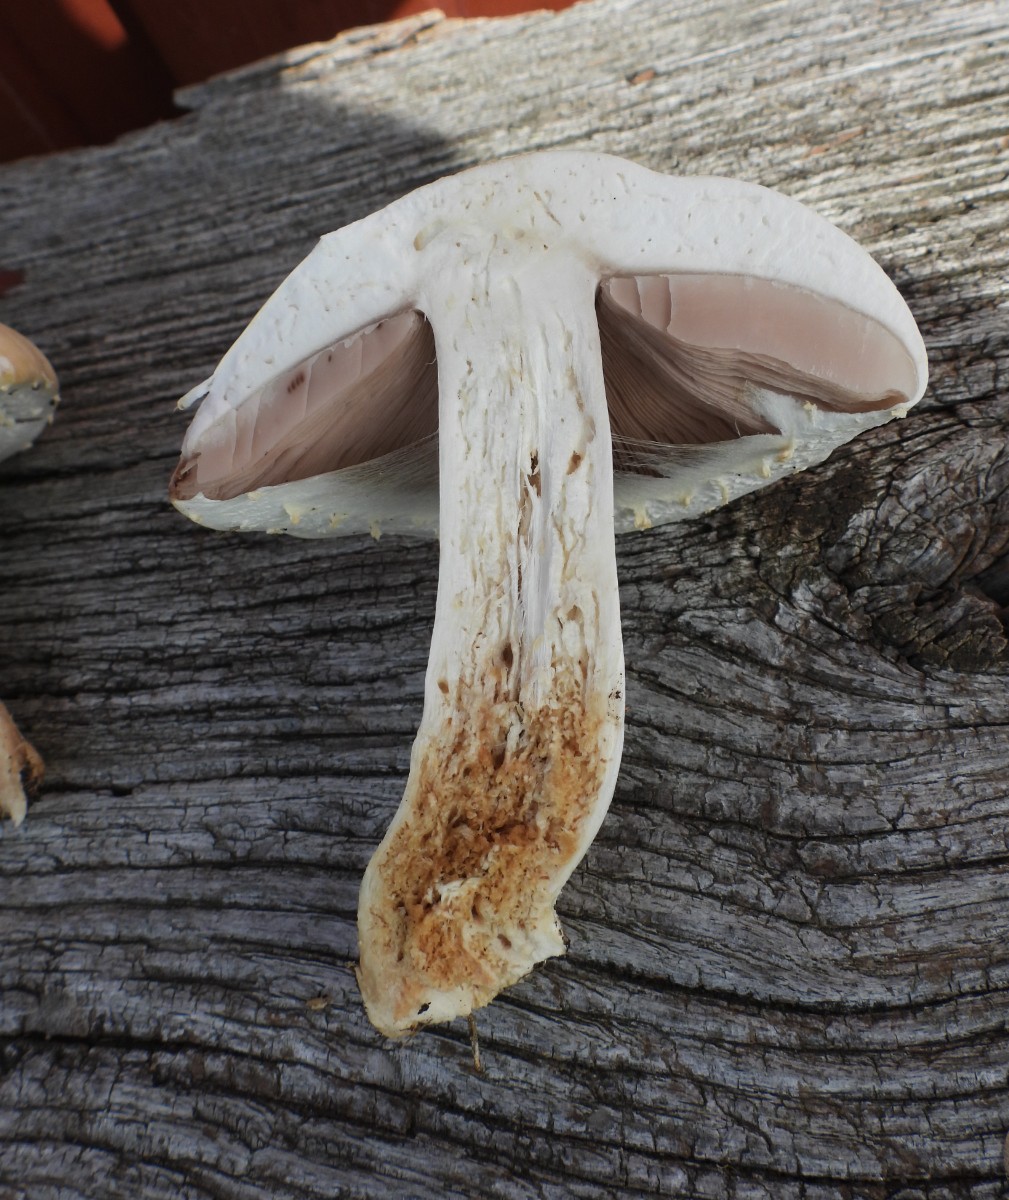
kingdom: Fungi
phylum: Basidiomycota
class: Agaricomycetes
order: Agaricales
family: Agaricaceae
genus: Agaricus
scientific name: Agaricus arvensis
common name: ager-champignon
